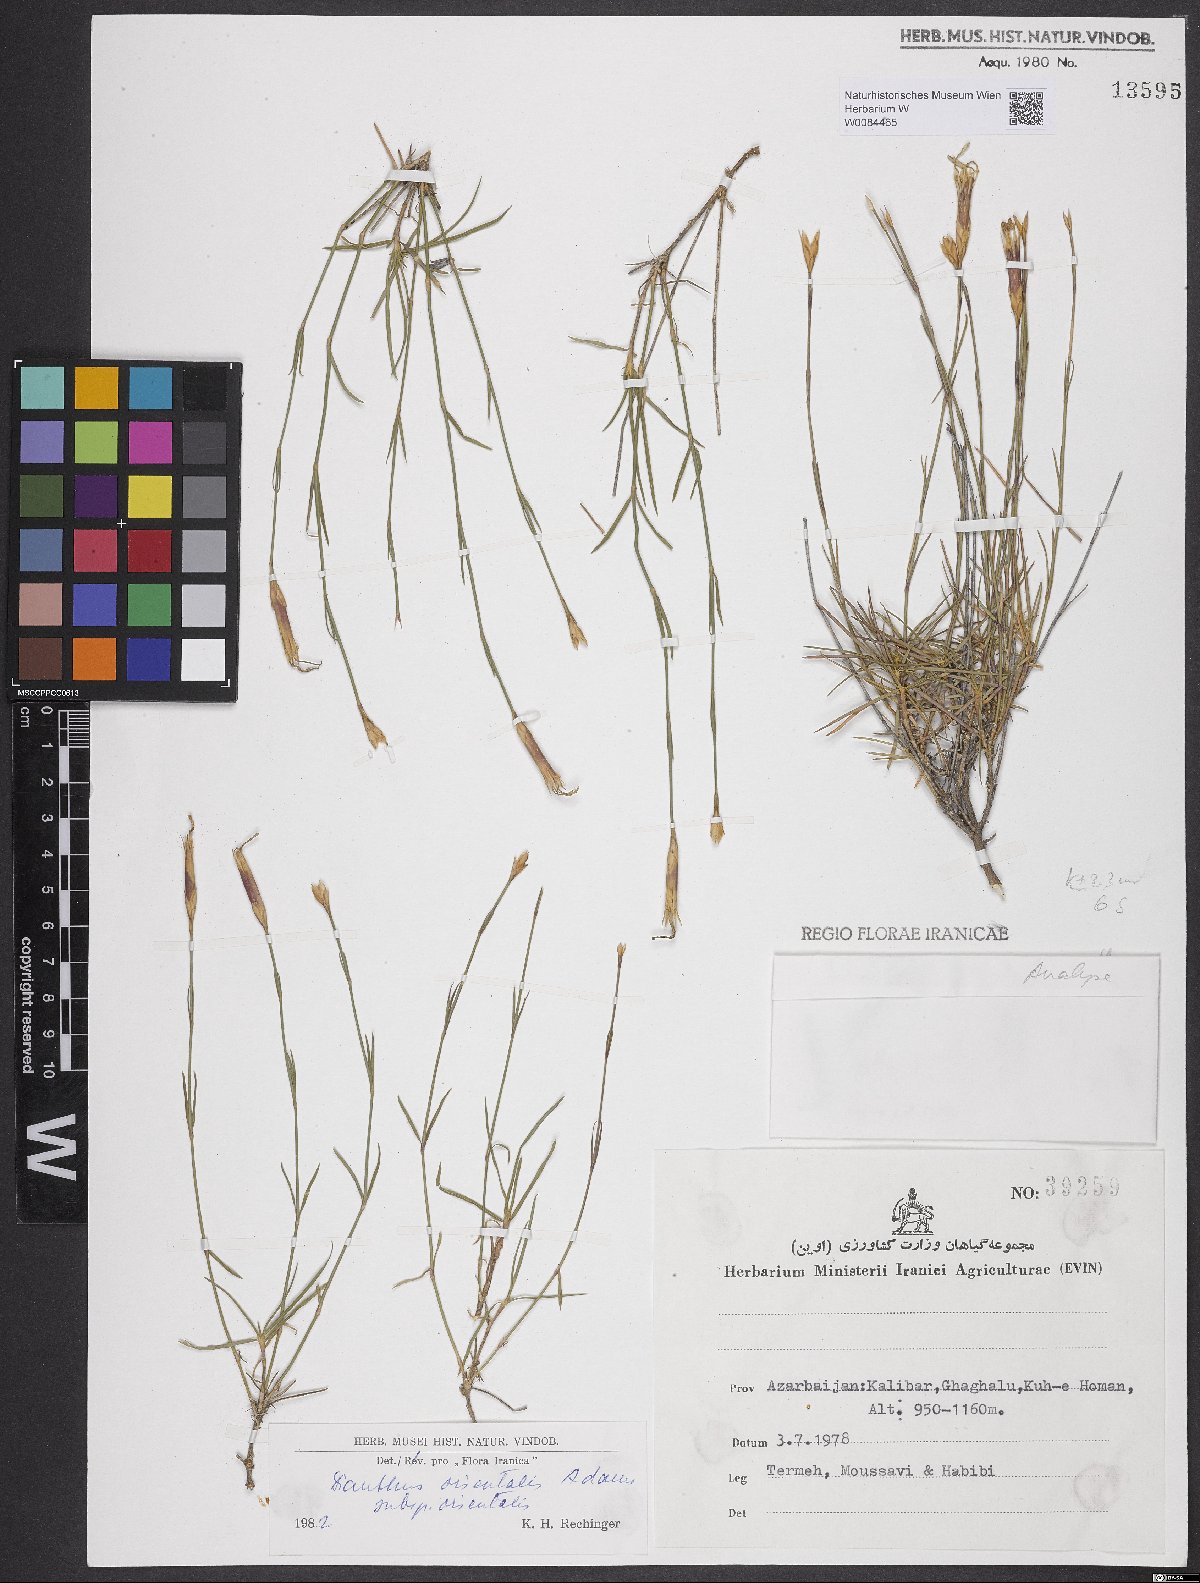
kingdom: Plantae
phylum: Tracheophyta
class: Magnoliopsida
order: Caryophyllales
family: Caryophyllaceae
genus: Dianthus
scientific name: Dianthus orientalis
